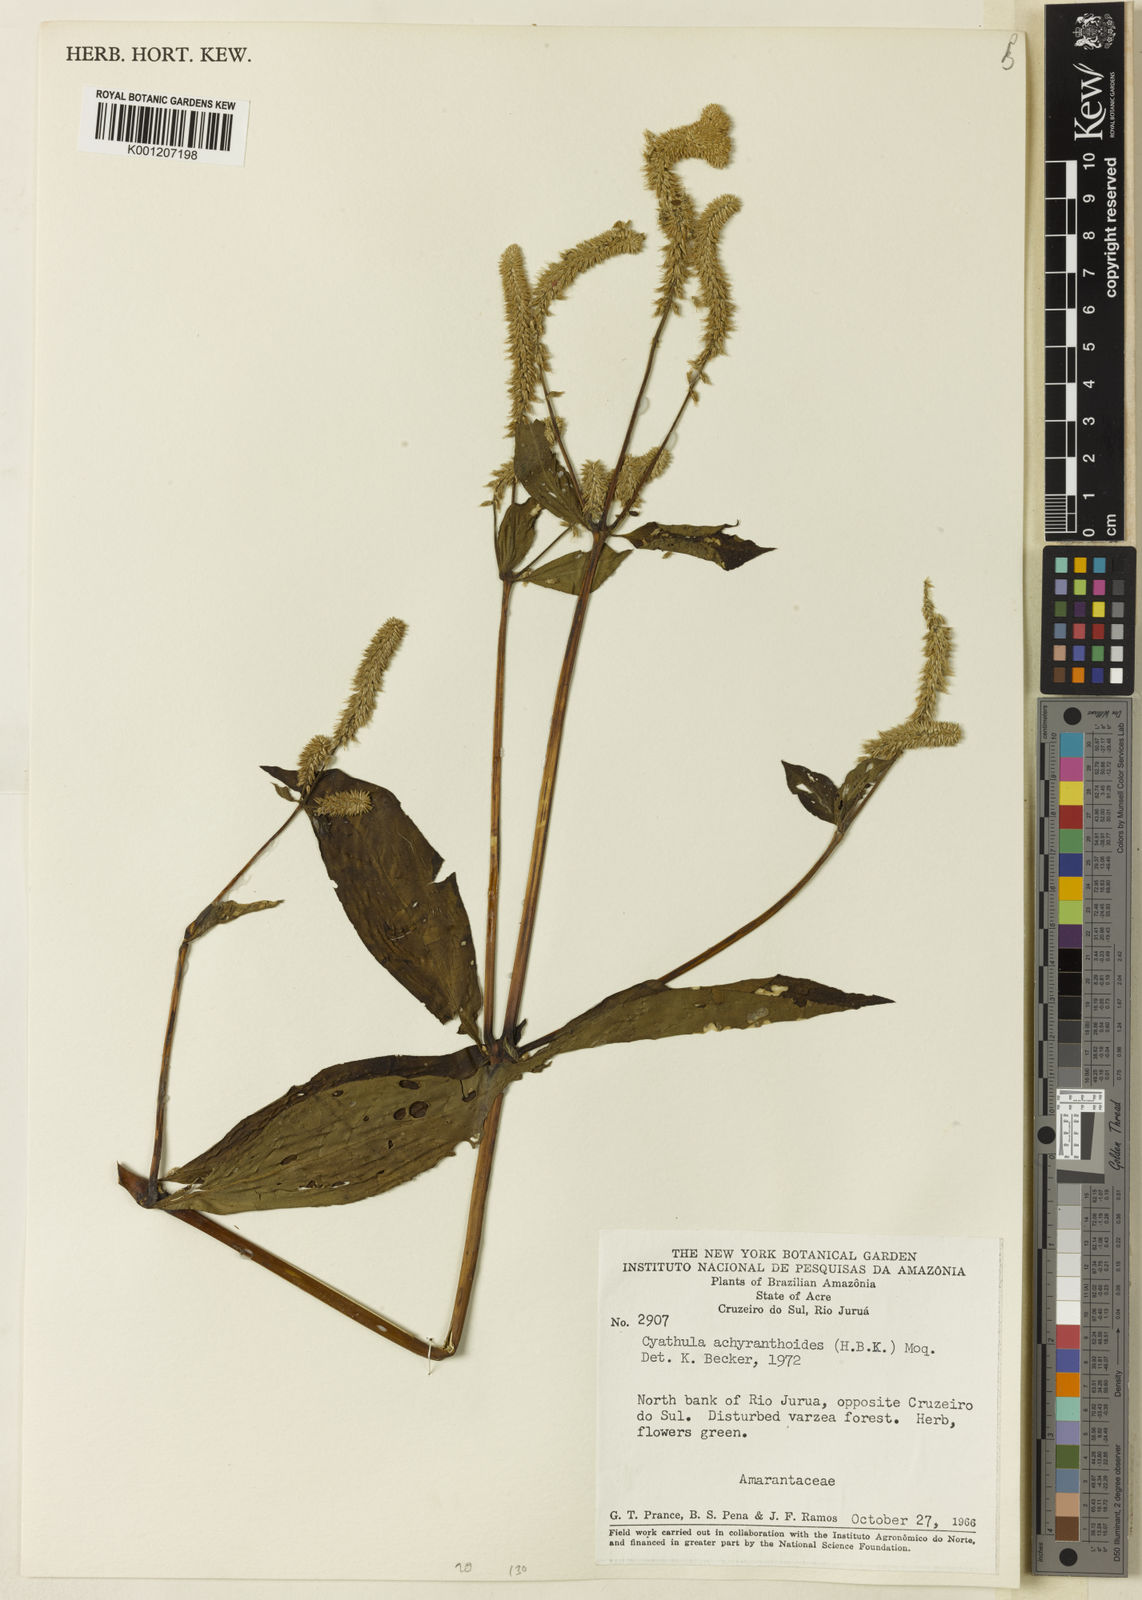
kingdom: Plantae
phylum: Tracheophyta
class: Magnoliopsida
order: Caryophyllales
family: Amaranthaceae
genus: Cyathula
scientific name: Cyathula achyranthoides
